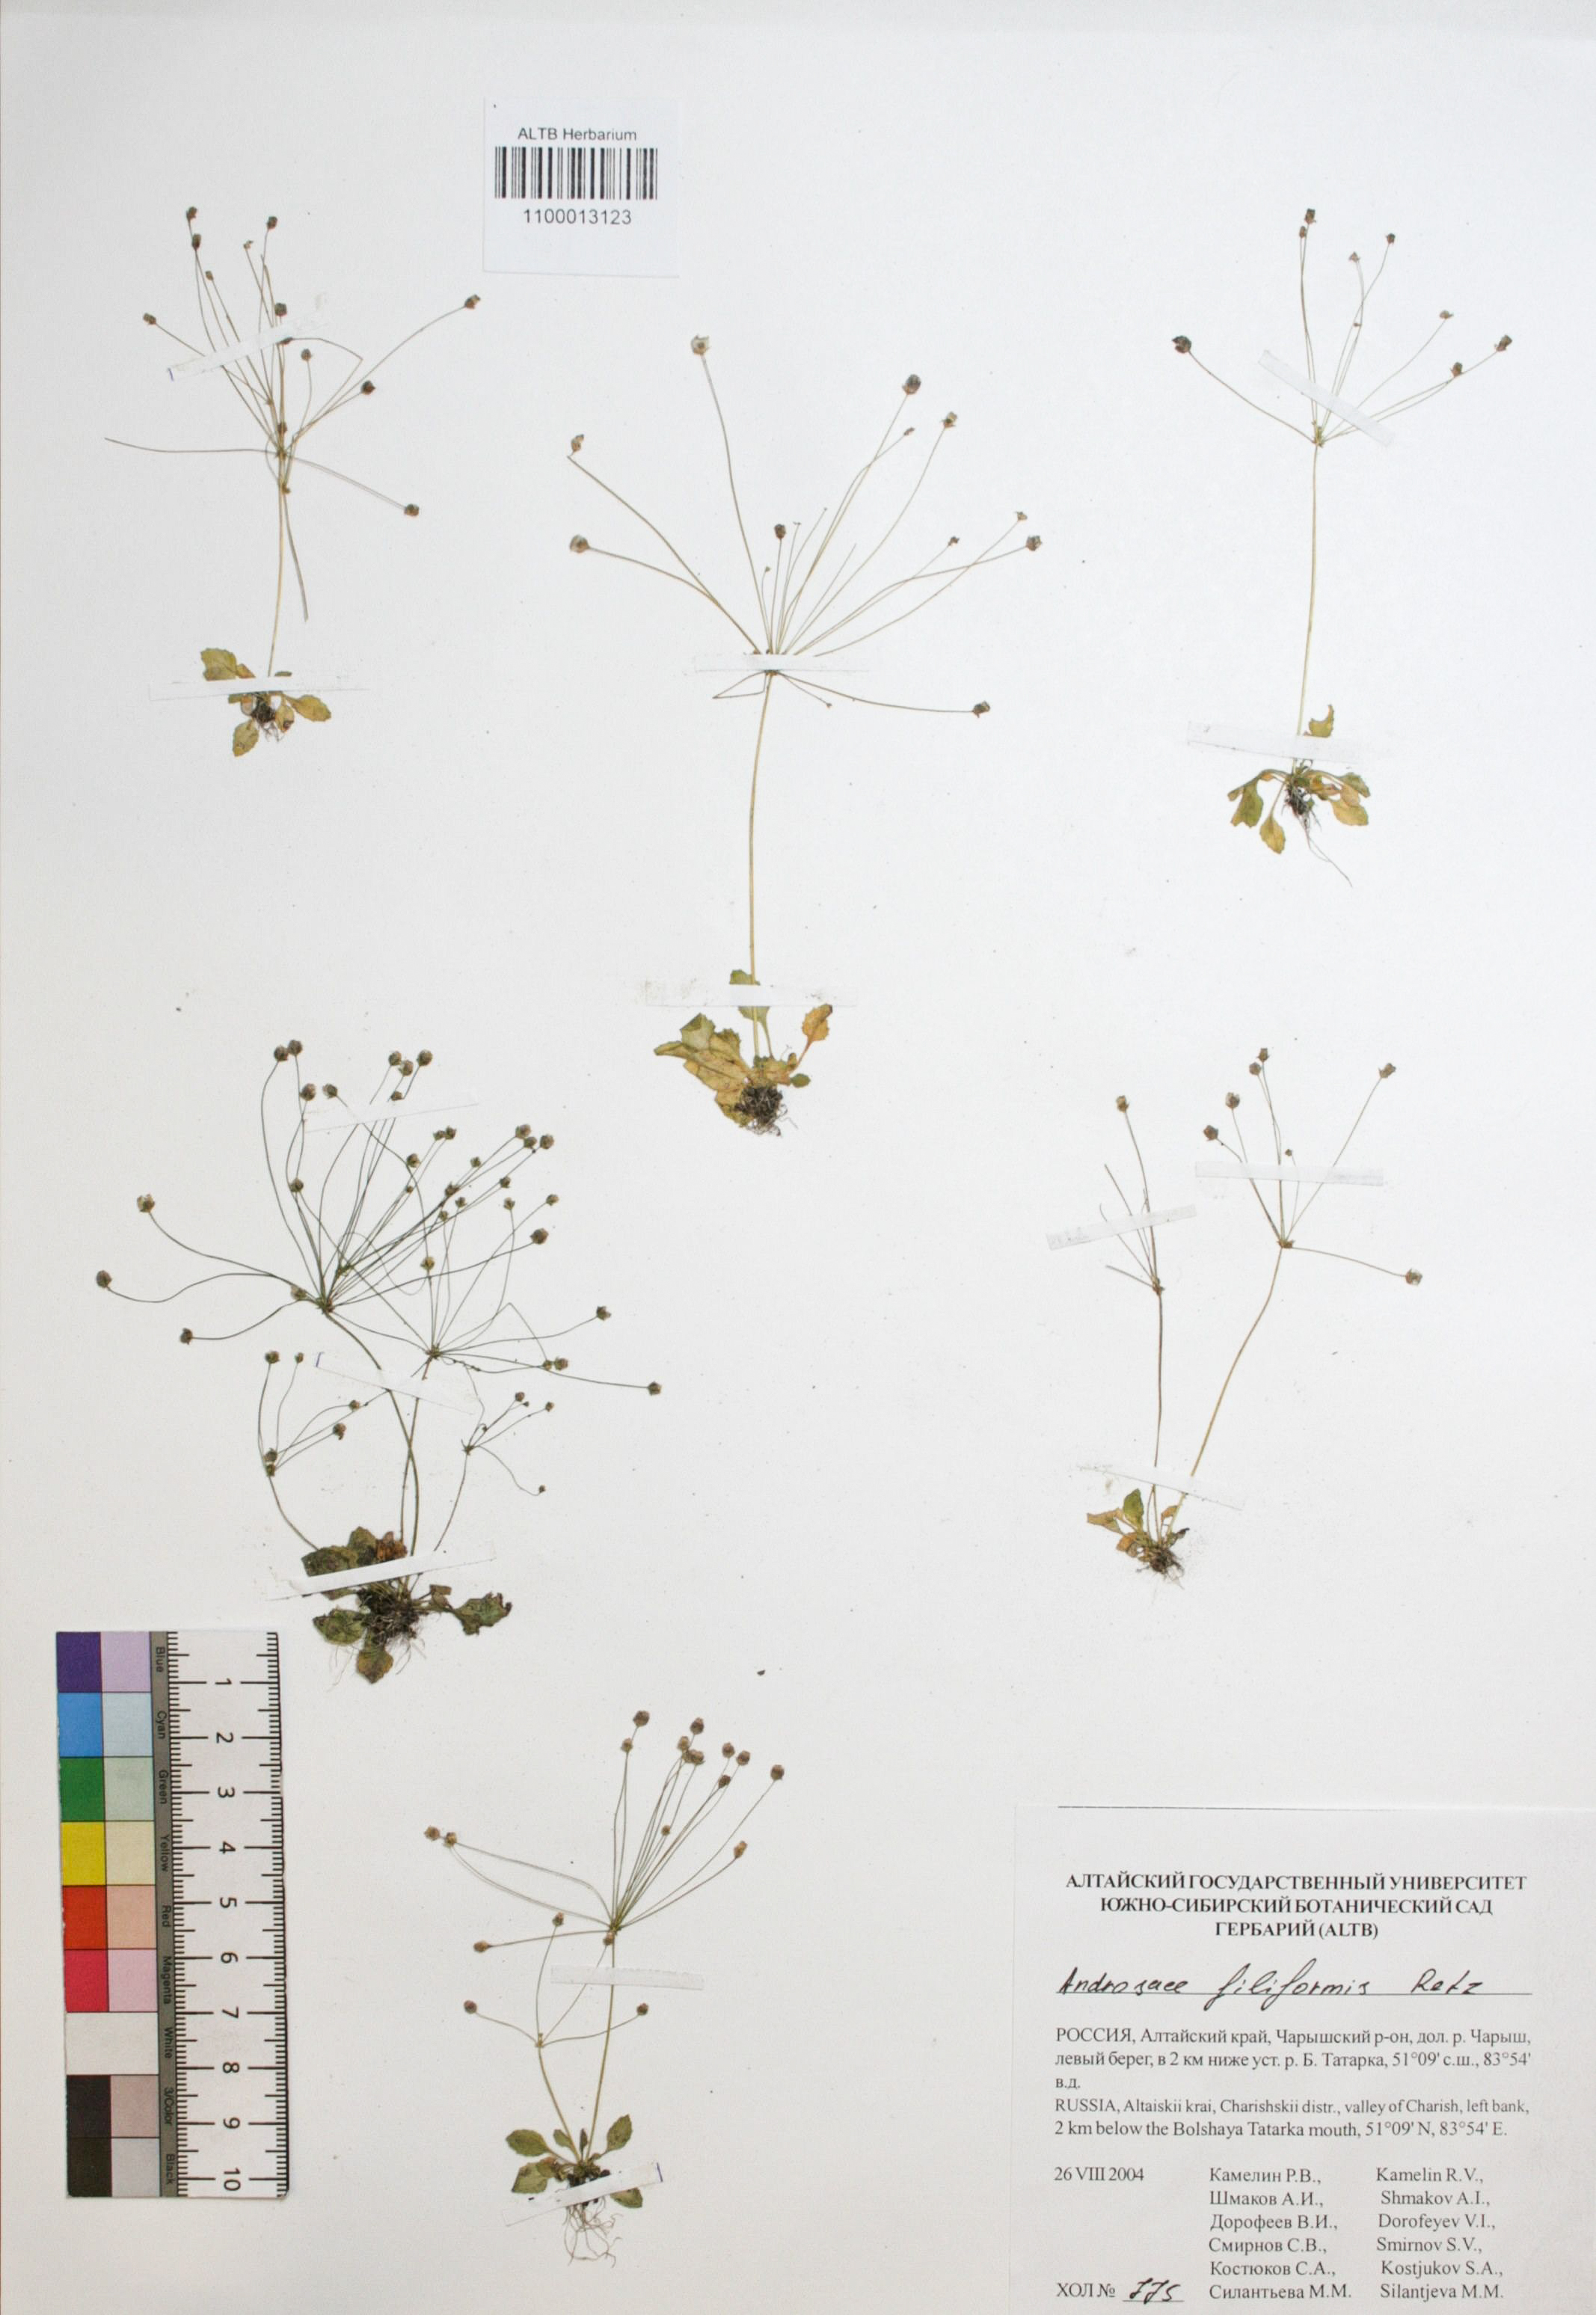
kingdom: Plantae
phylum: Tracheophyta
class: Magnoliopsida
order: Ericales
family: Primulaceae
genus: Androsace
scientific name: Androsace filiformis
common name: Filiform rock jasmine
